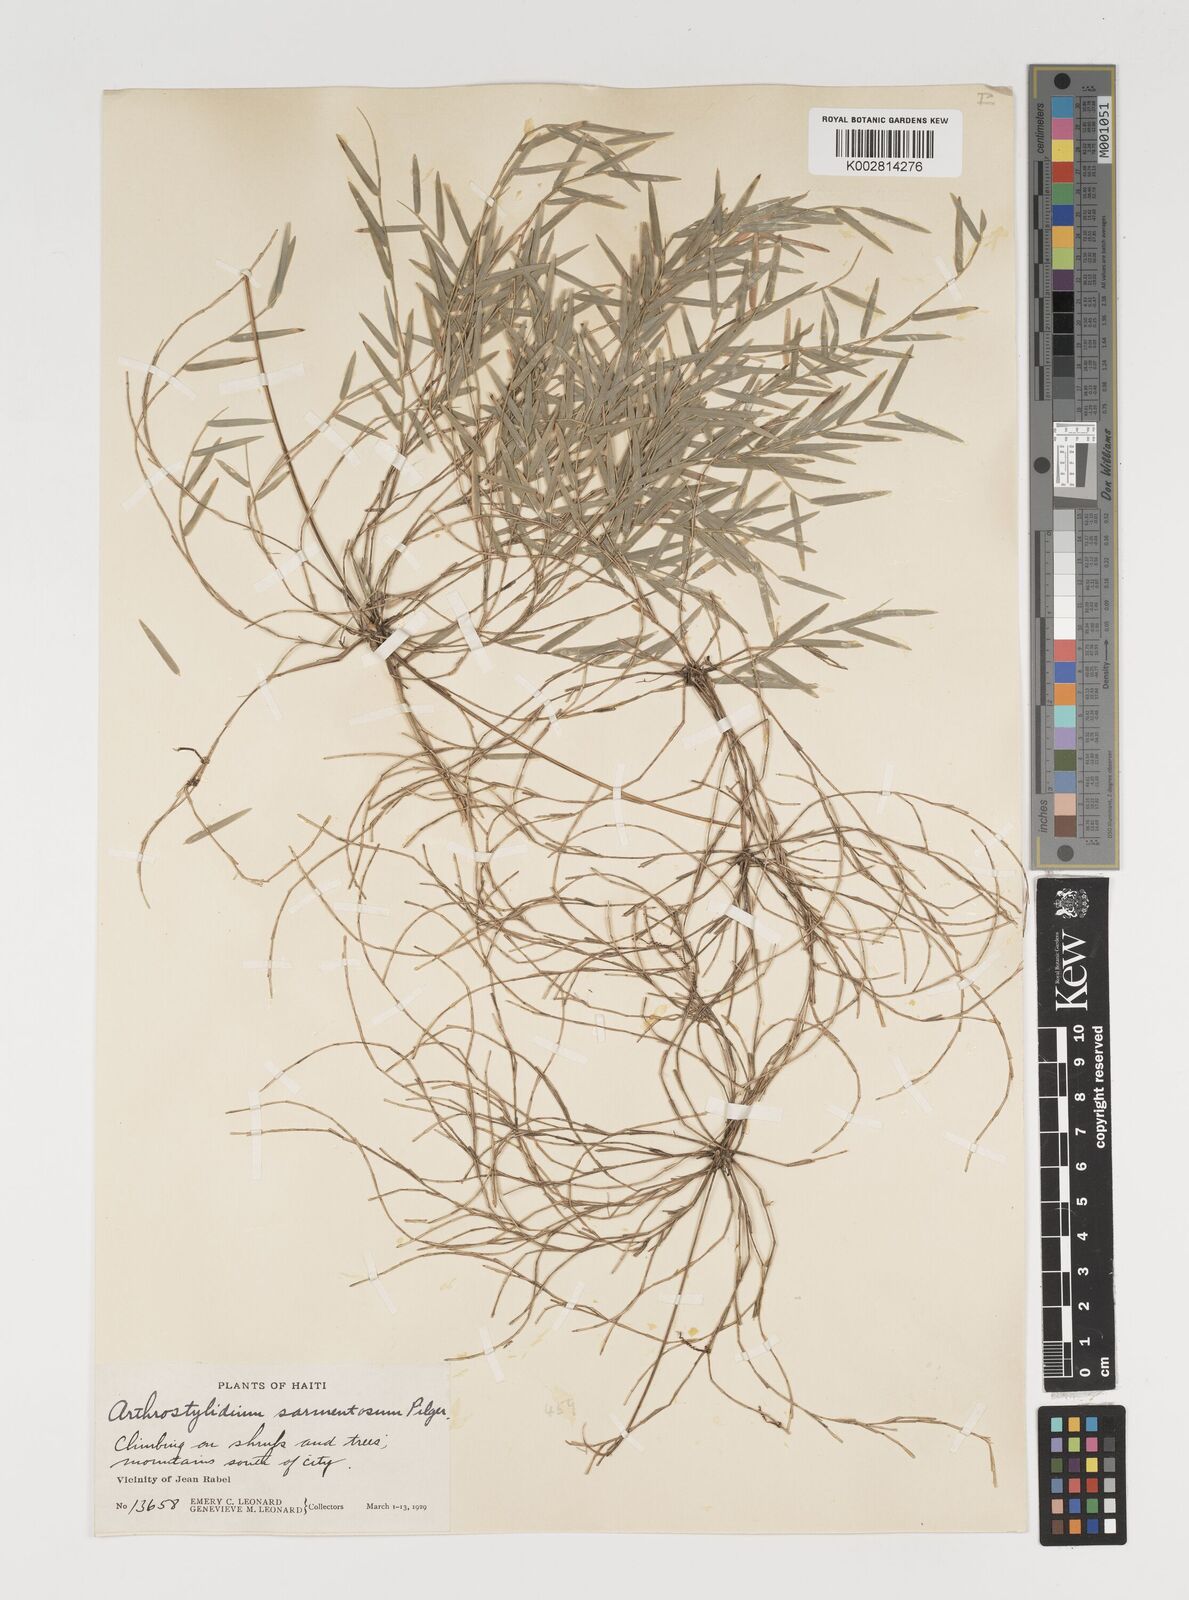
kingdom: Plantae
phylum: Tracheophyta
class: Liliopsida
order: Poales
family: Poaceae
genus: Arthrostylidium
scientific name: Arthrostylidium sarmentosum
